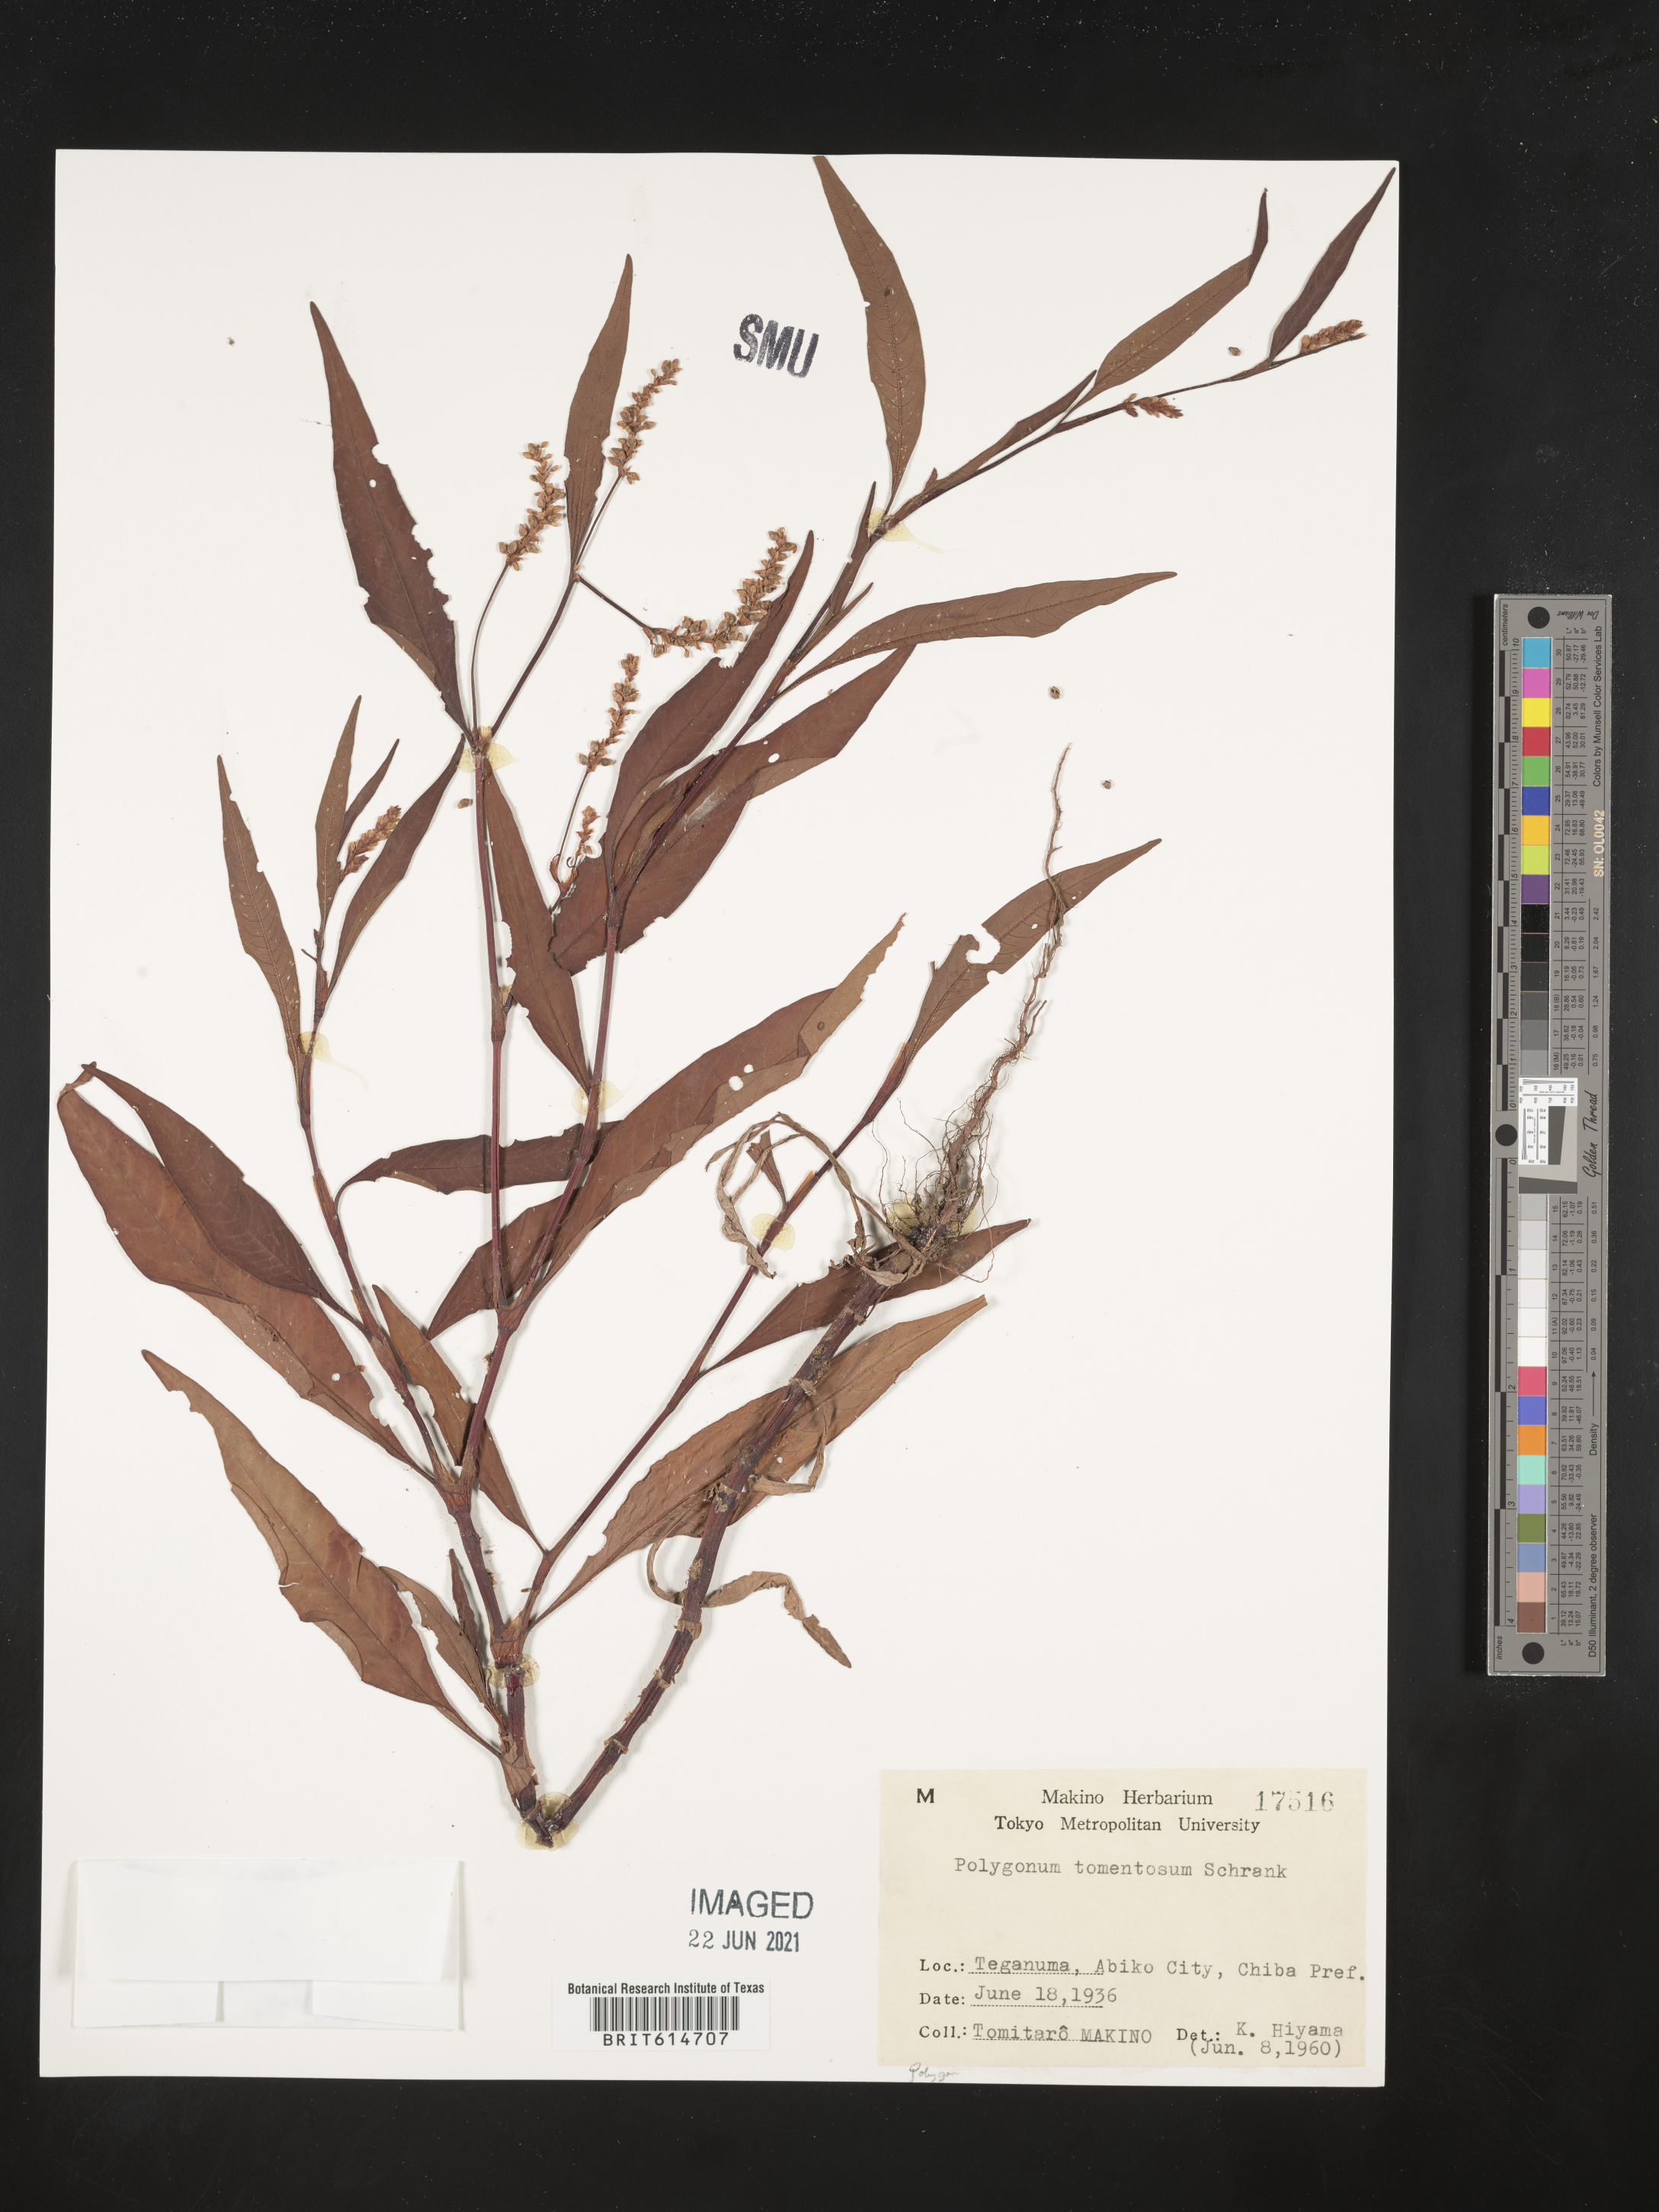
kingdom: Plantae
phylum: Tracheophyta
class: Magnoliopsida
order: Caryophyllales
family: Polygonaceae
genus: Persicaria
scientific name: Persicaria lapathifolia
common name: Curlytop knotweed
